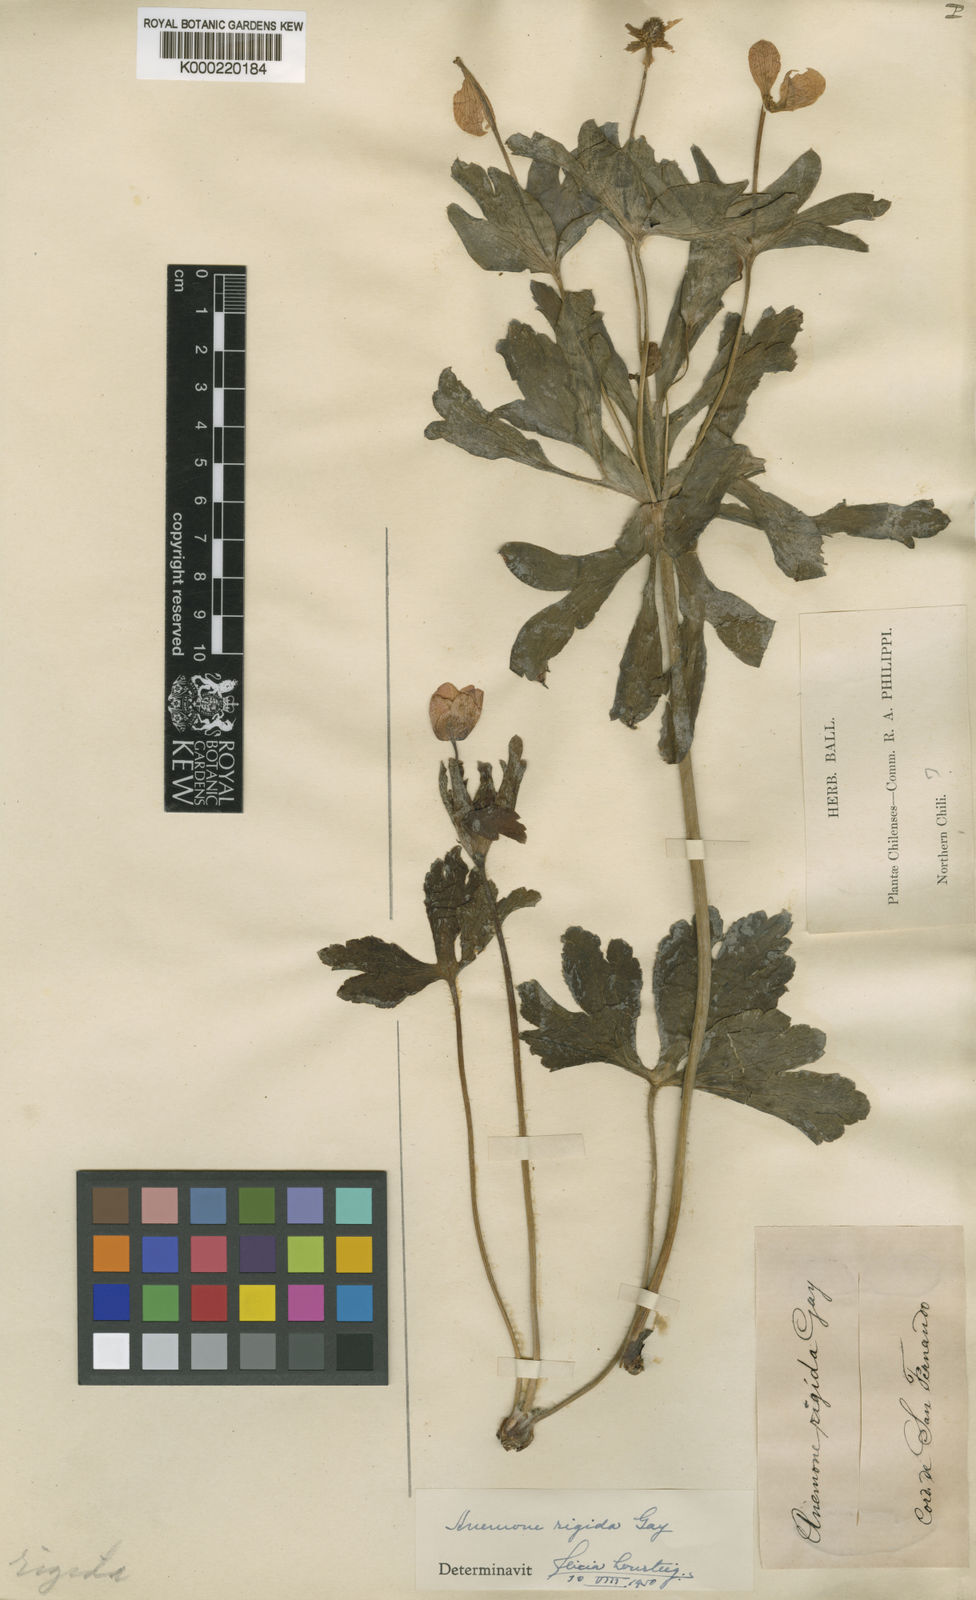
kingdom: Plantae
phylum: Tracheophyta
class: Magnoliopsida
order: Ranunculales
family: Ranunculaceae
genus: Knowltonia
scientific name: Knowltonia hootae
